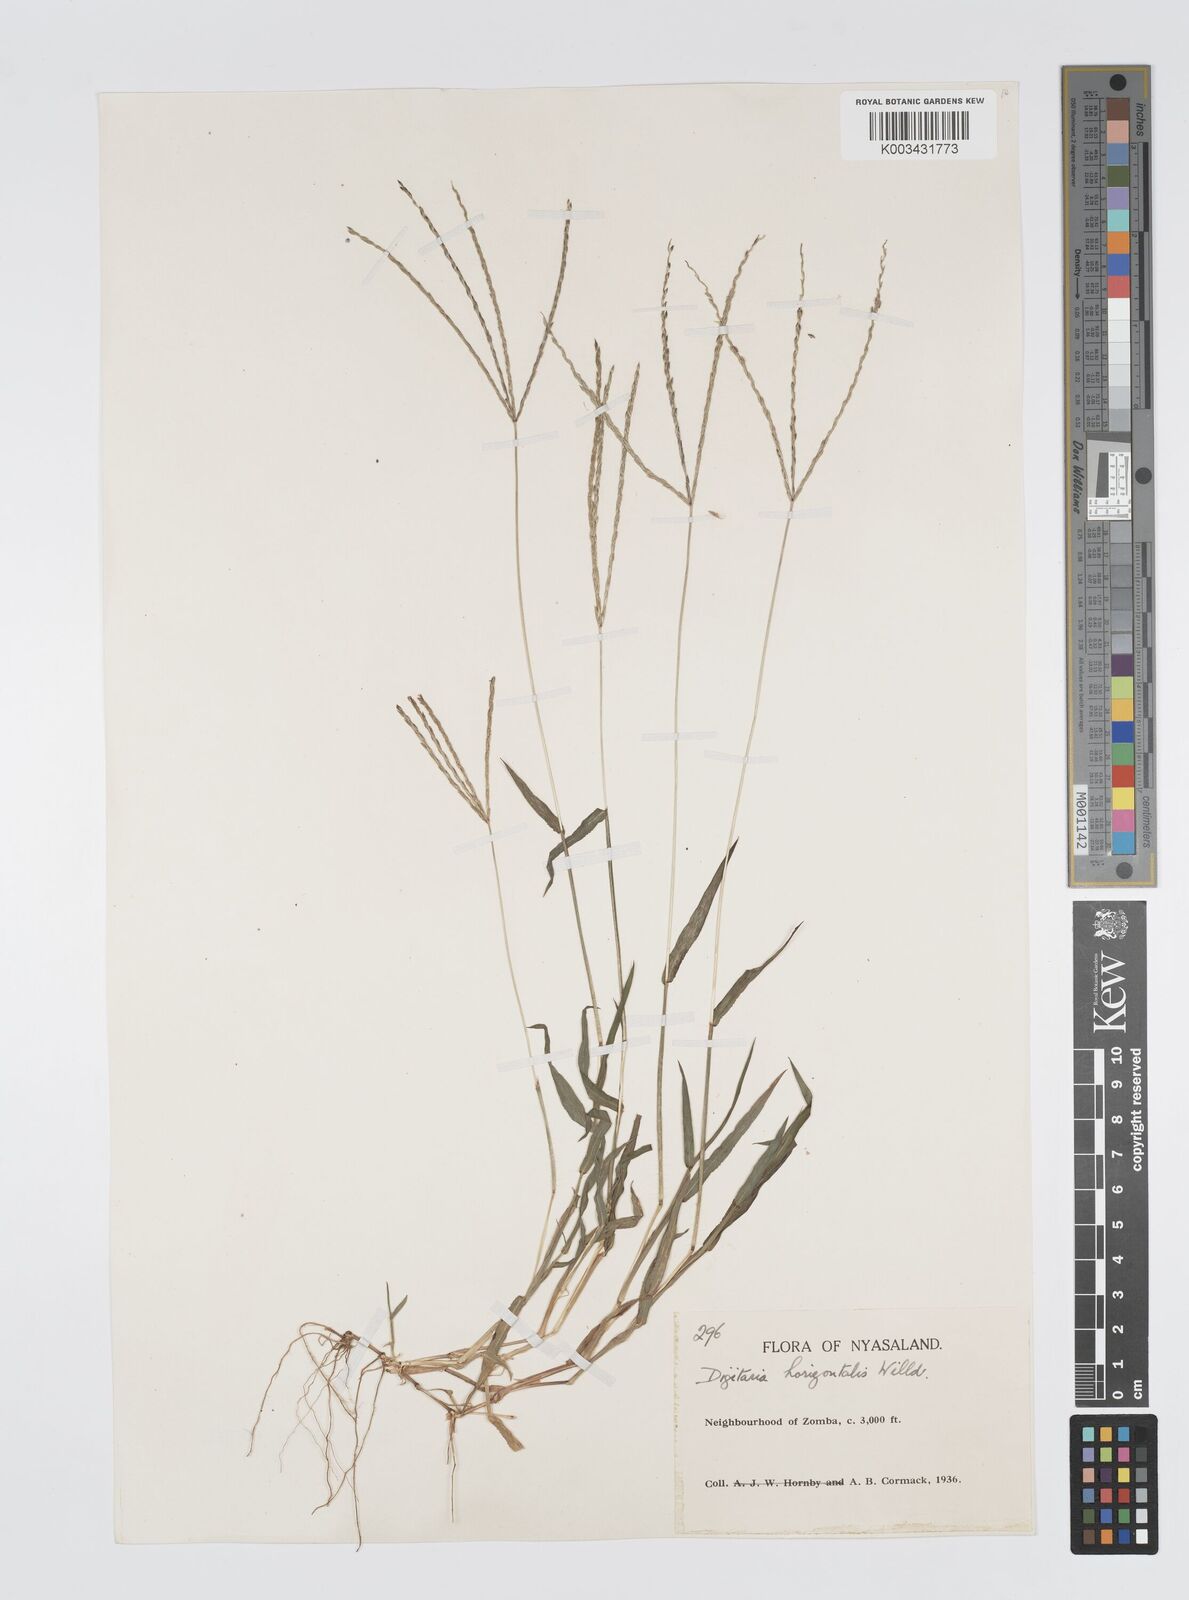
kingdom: Plantae
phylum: Tracheophyta
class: Liliopsida
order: Poales
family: Poaceae
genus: Digitaria
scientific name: Digitaria nuda
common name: Naked crabgrass
